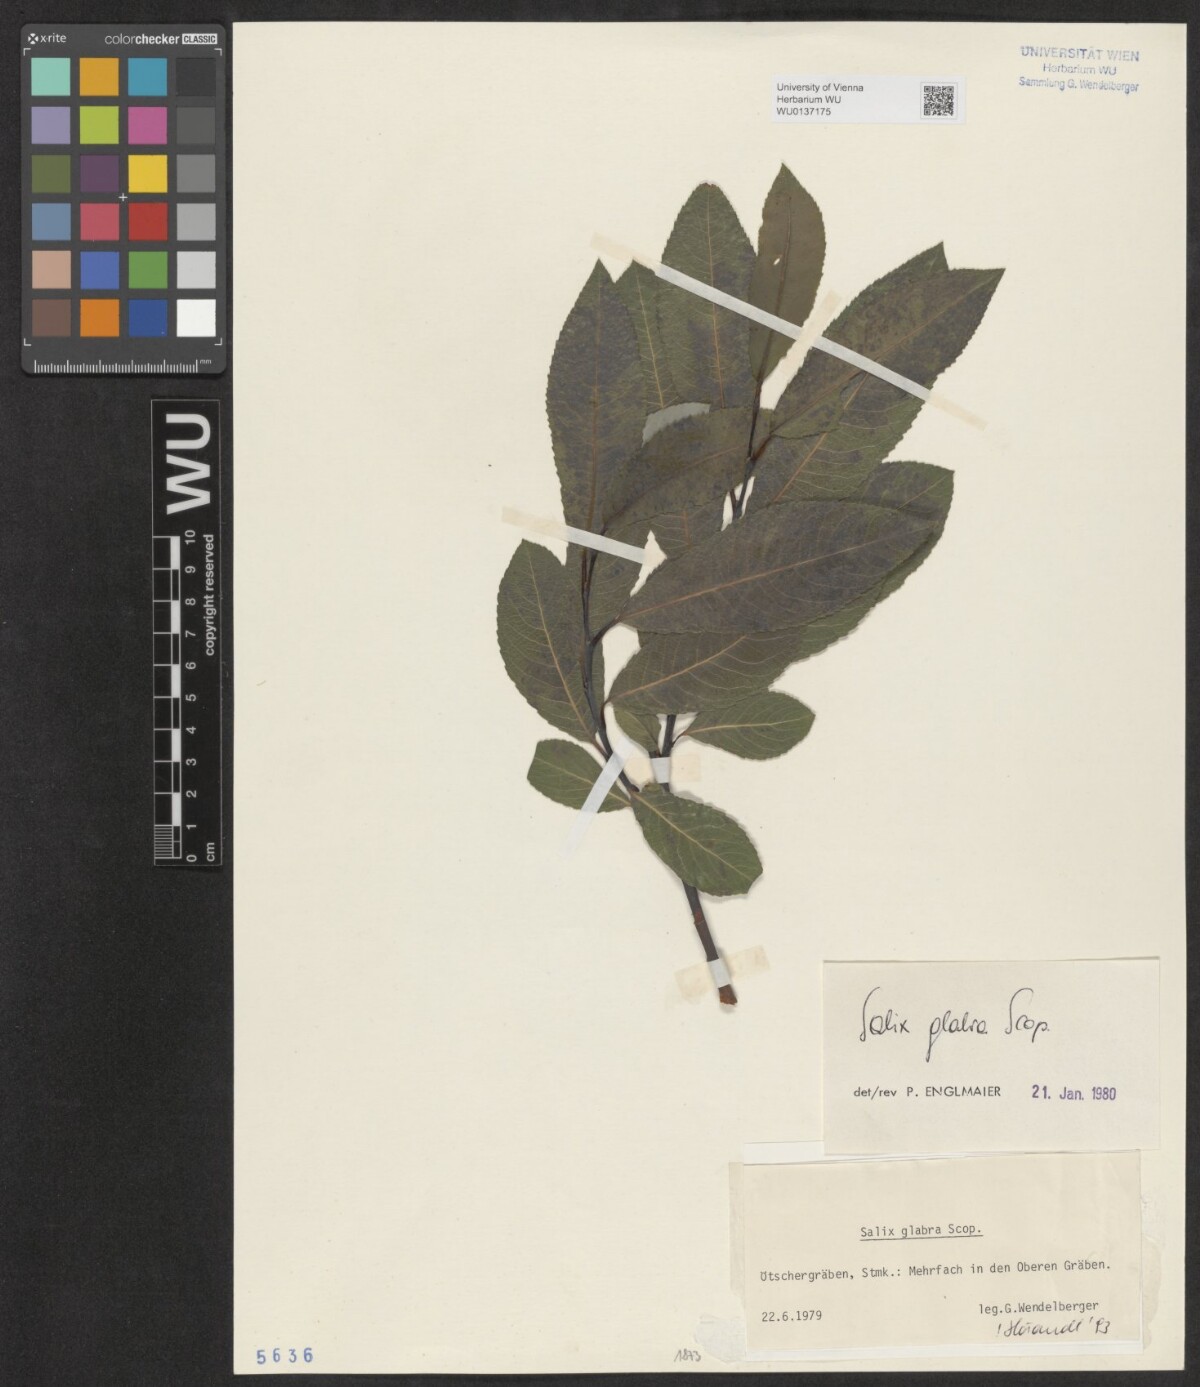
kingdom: Plantae
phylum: Tracheophyta
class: Magnoliopsida
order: Malpighiales
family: Salicaceae
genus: Salix
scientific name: Salix glabra
